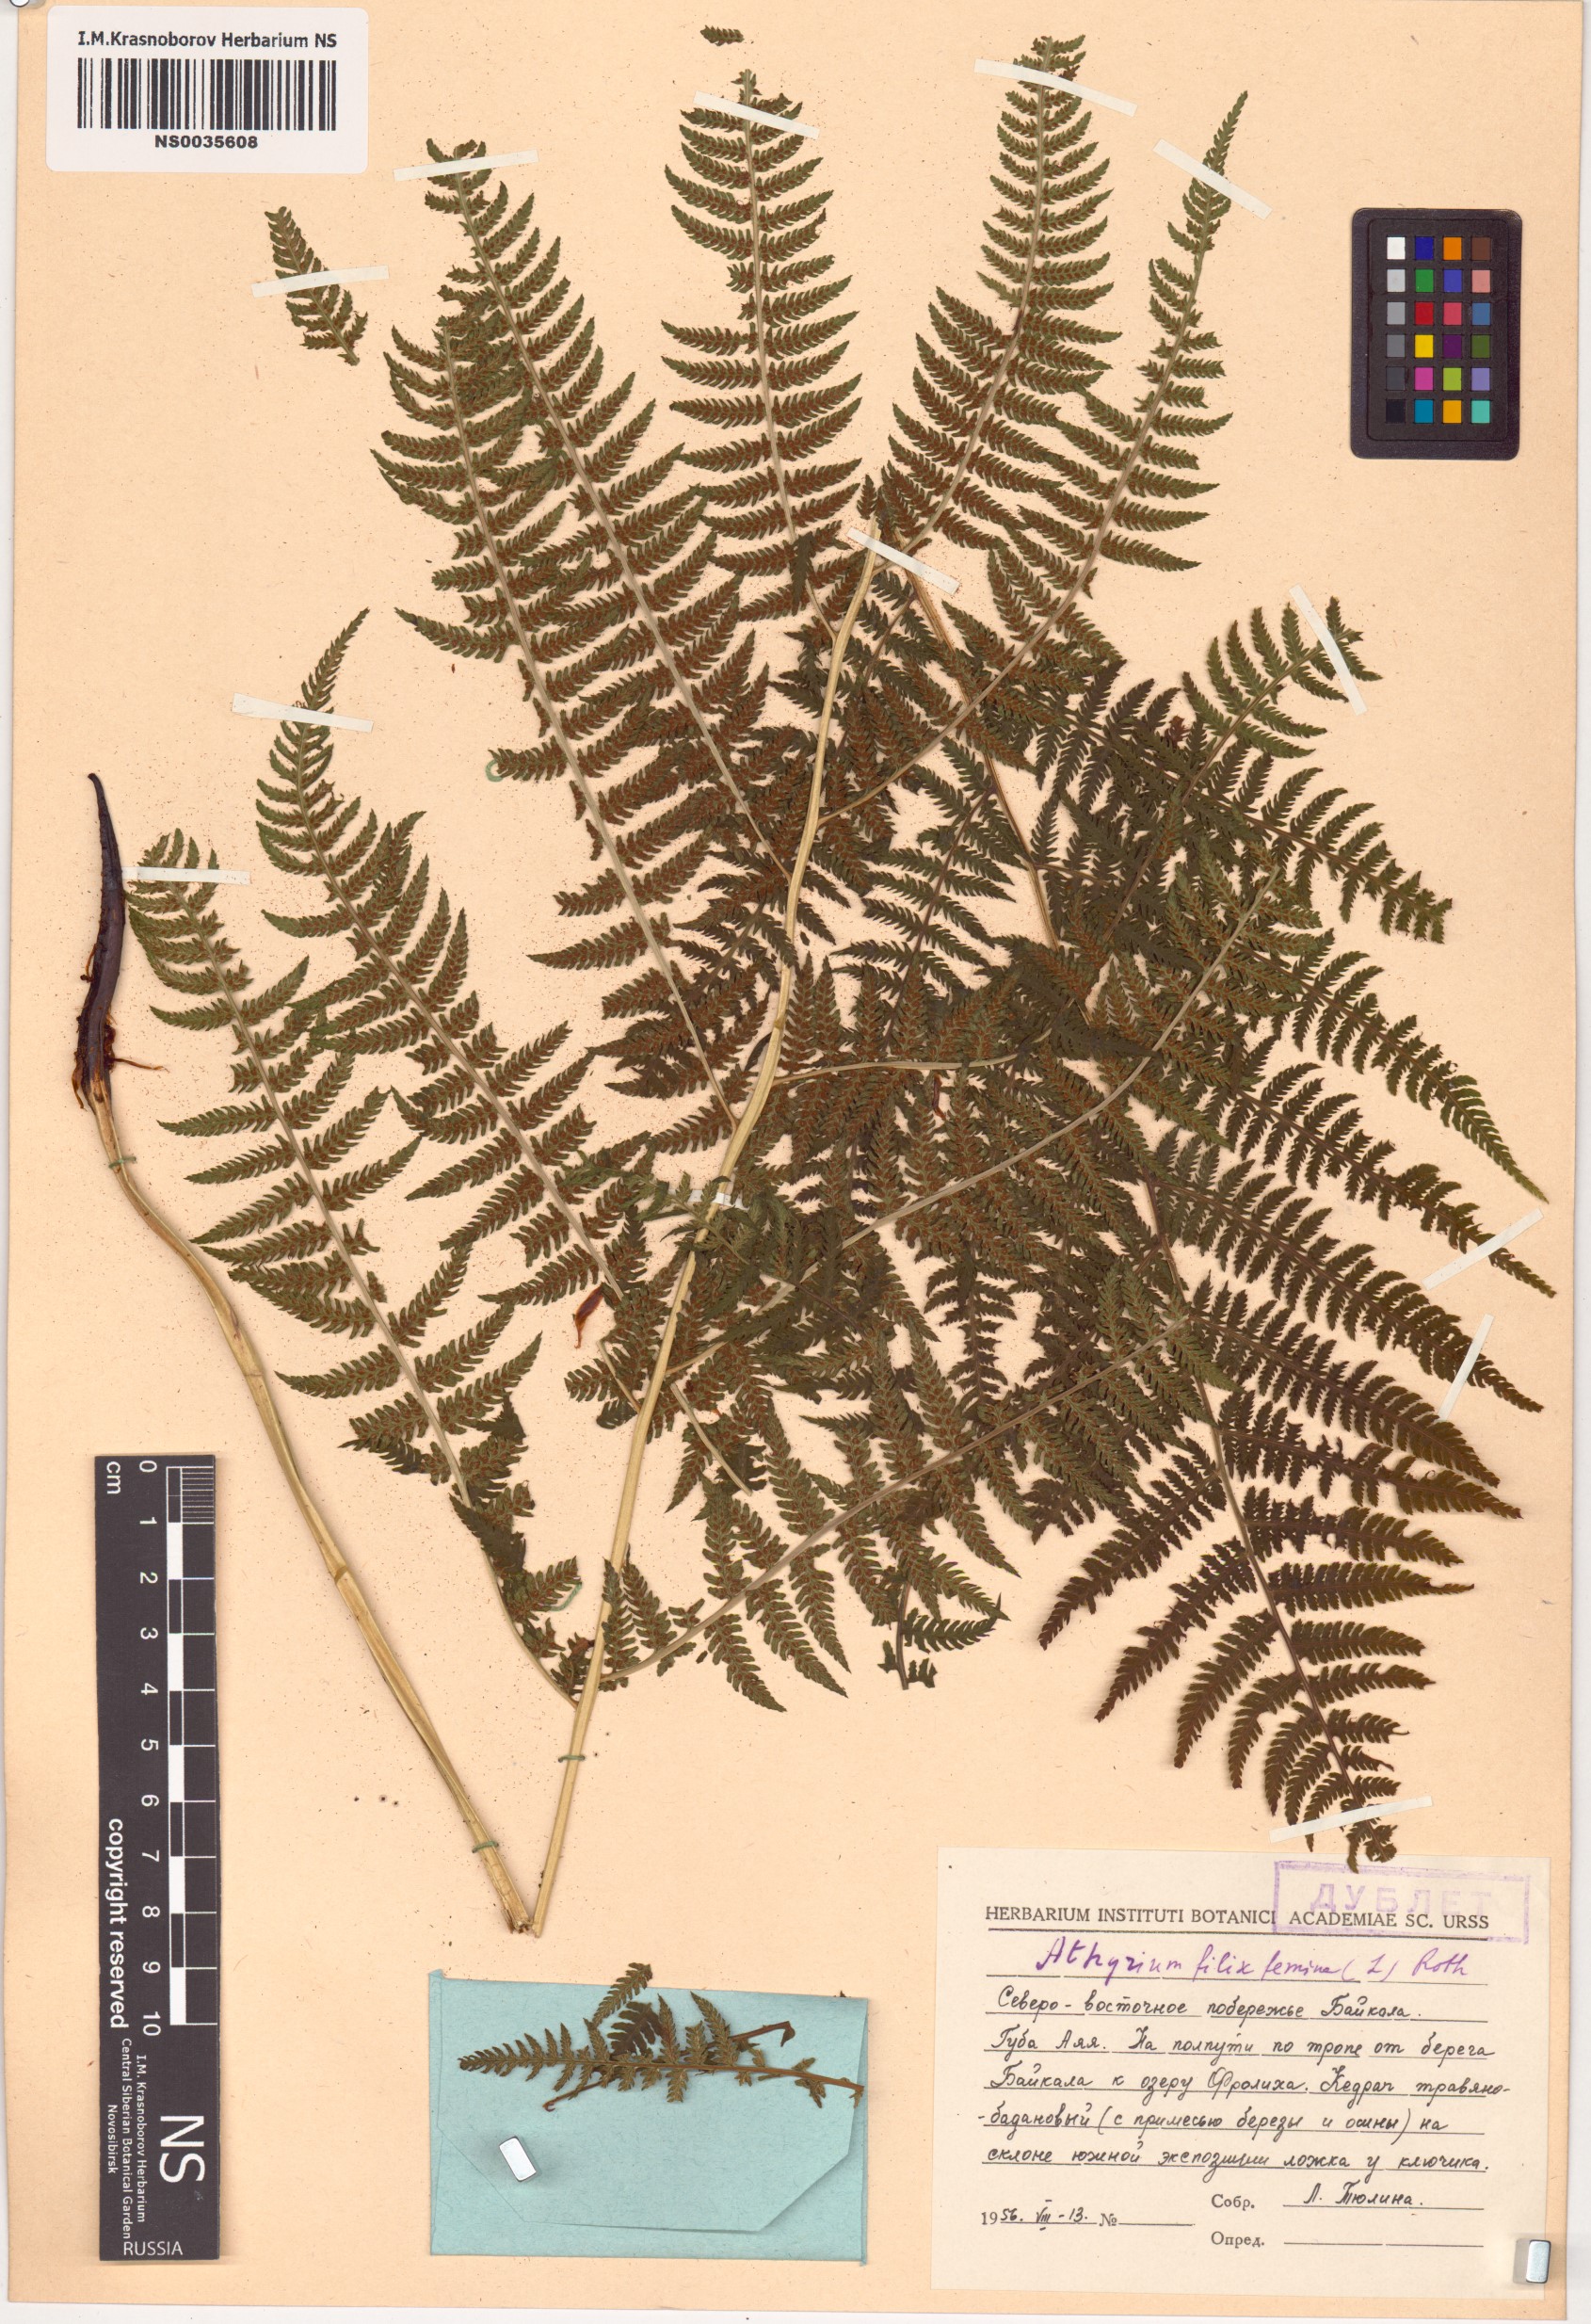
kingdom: Plantae
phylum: Tracheophyta
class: Polypodiopsida
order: Polypodiales
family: Athyriaceae
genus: Athyrium
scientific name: Athyrium filix-femina
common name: Lady fern
